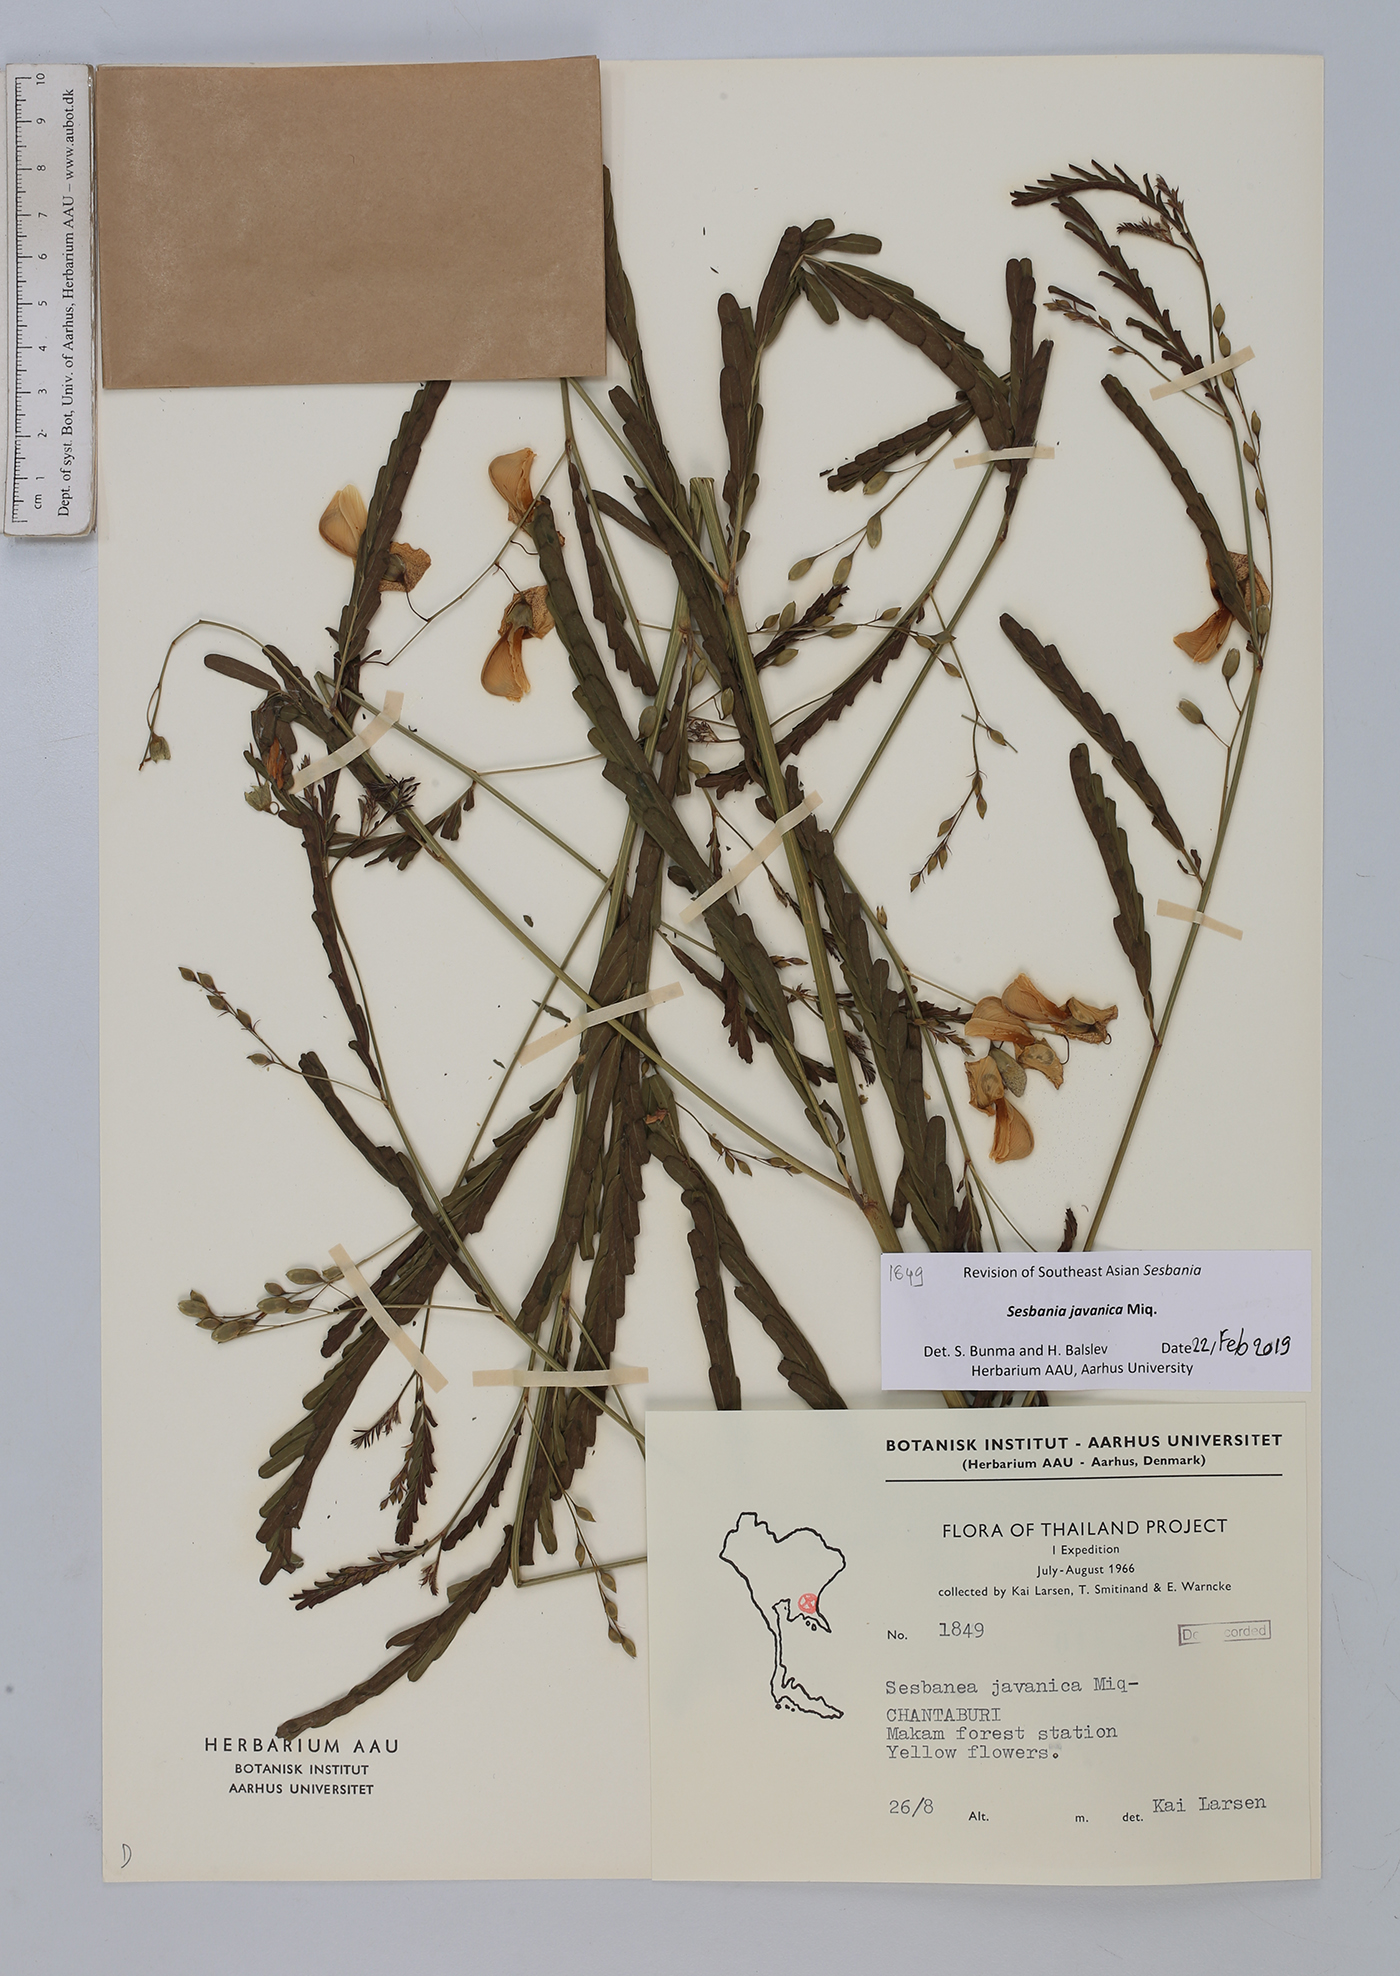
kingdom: Plantae
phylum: Tracheophyta
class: Magnoliopsida
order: Fabales
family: Fabaceae
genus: Sesbania
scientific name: Sesbania javanica
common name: Sesbania-pea
